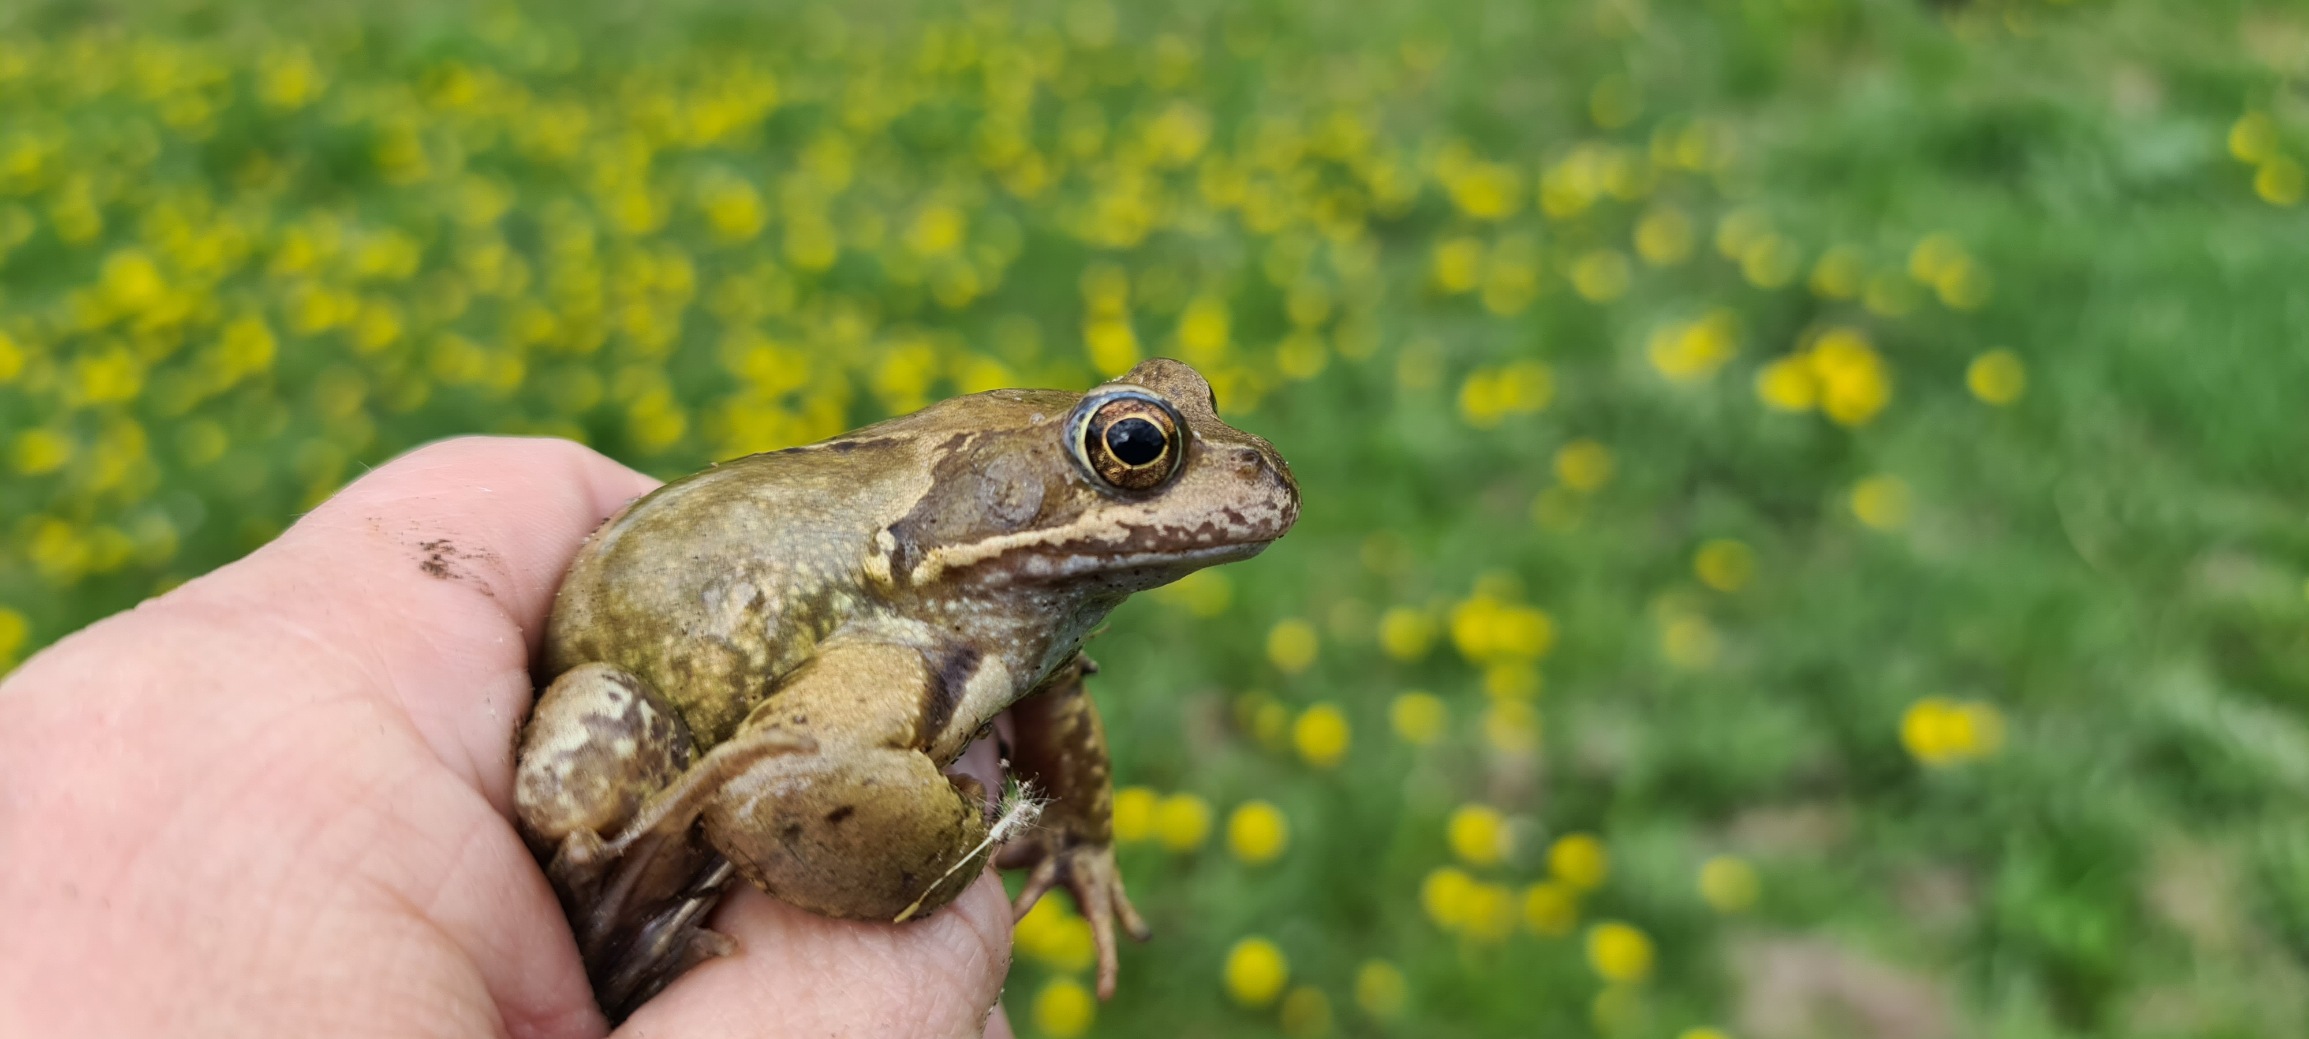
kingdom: Animalia
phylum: Chordata
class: Amphibia
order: Anura
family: Ranidae
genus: Rana
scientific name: Rana temporaria
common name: Butsnudet frø
